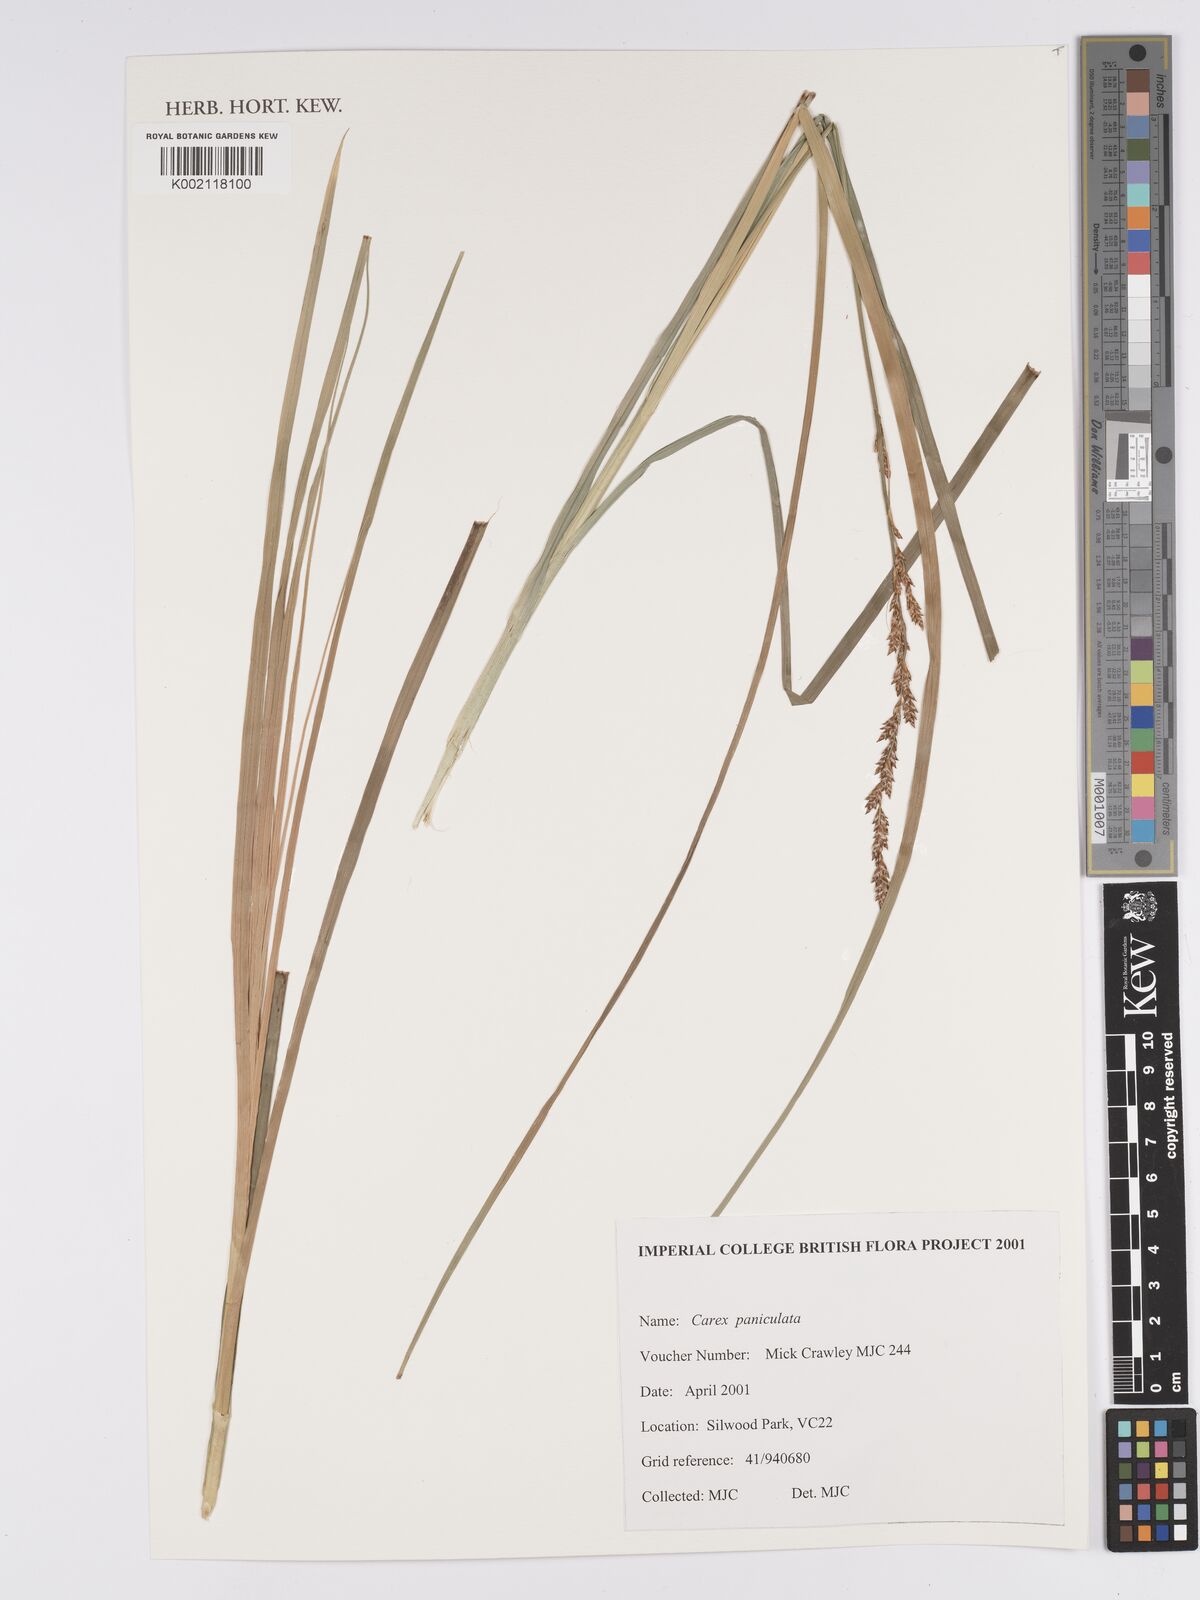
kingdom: Plantae
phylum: Tracheophyta
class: Liliopsida
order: Poales
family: Cyperaceae
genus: Carex
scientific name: Carex paniculata
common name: Greater tussock-sedge
